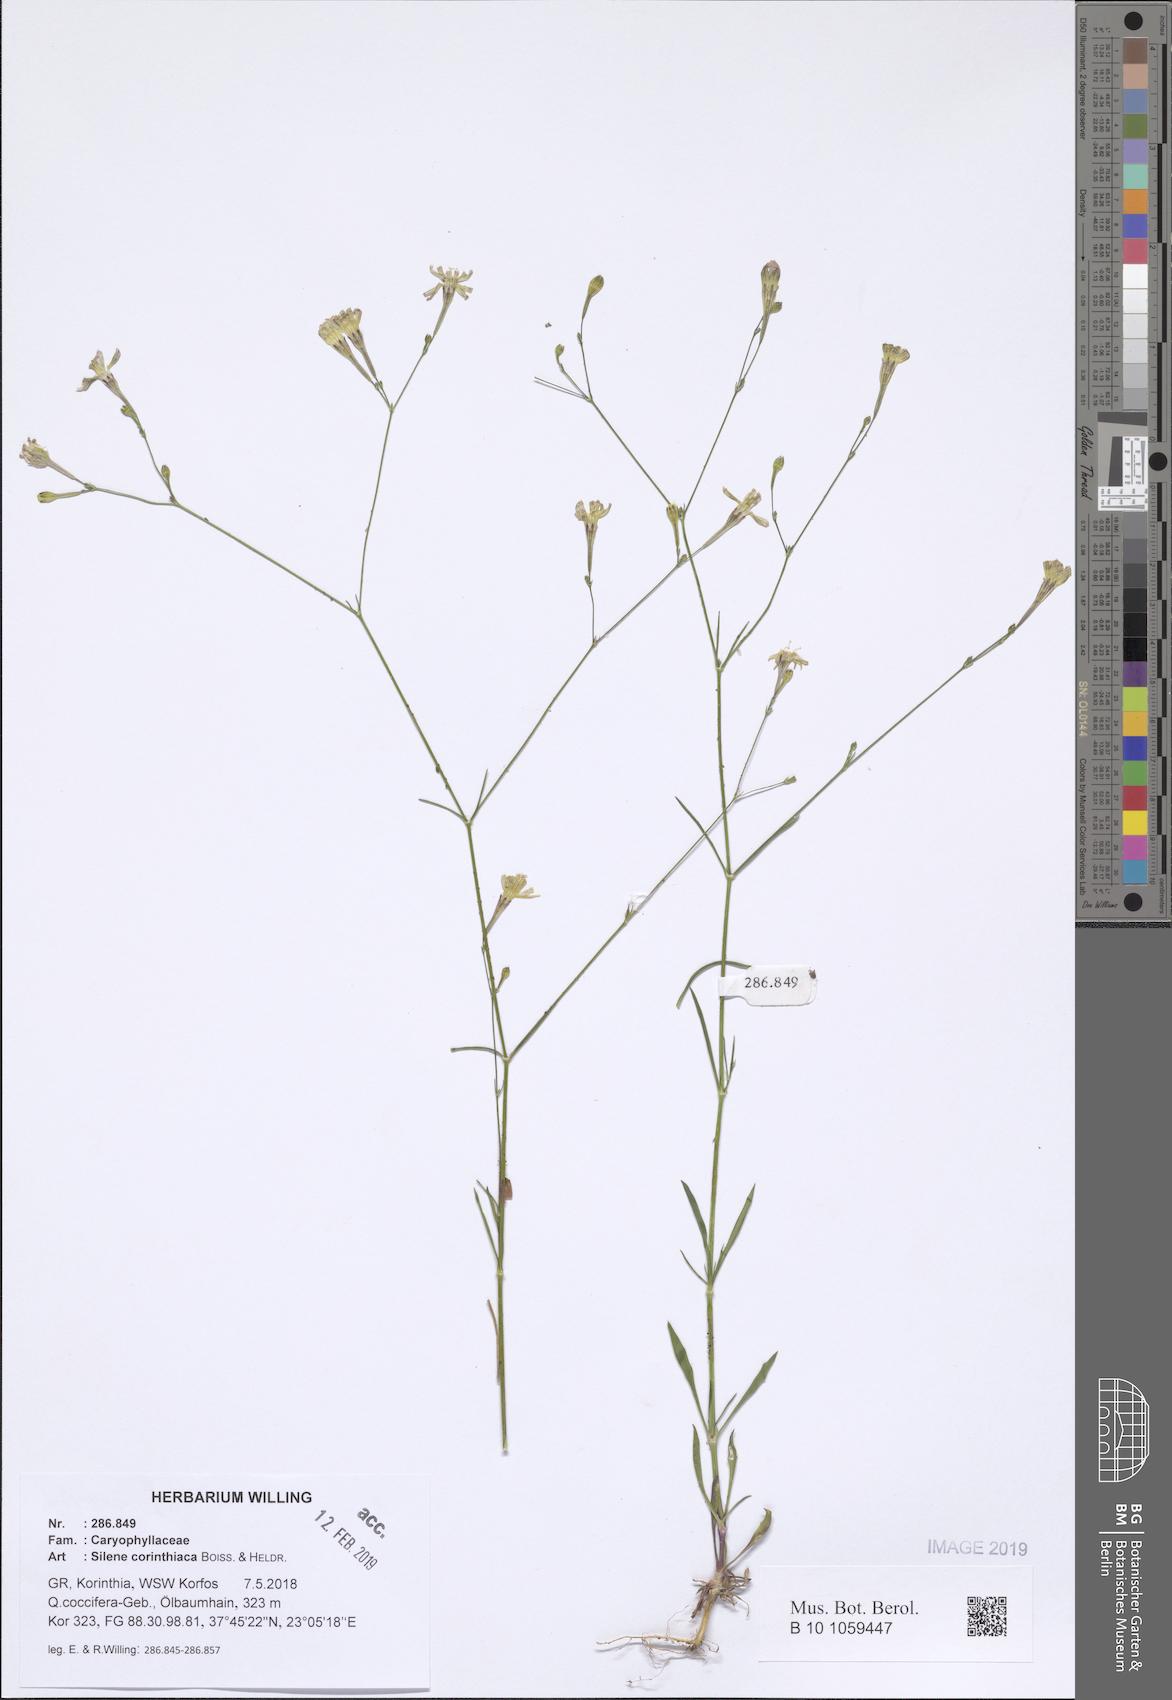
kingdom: Plantae
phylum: Tracheophyta
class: Magnoliopsida
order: Caryophyllales
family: Caryophyllaceae
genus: Silene
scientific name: Silene corinthiaca
